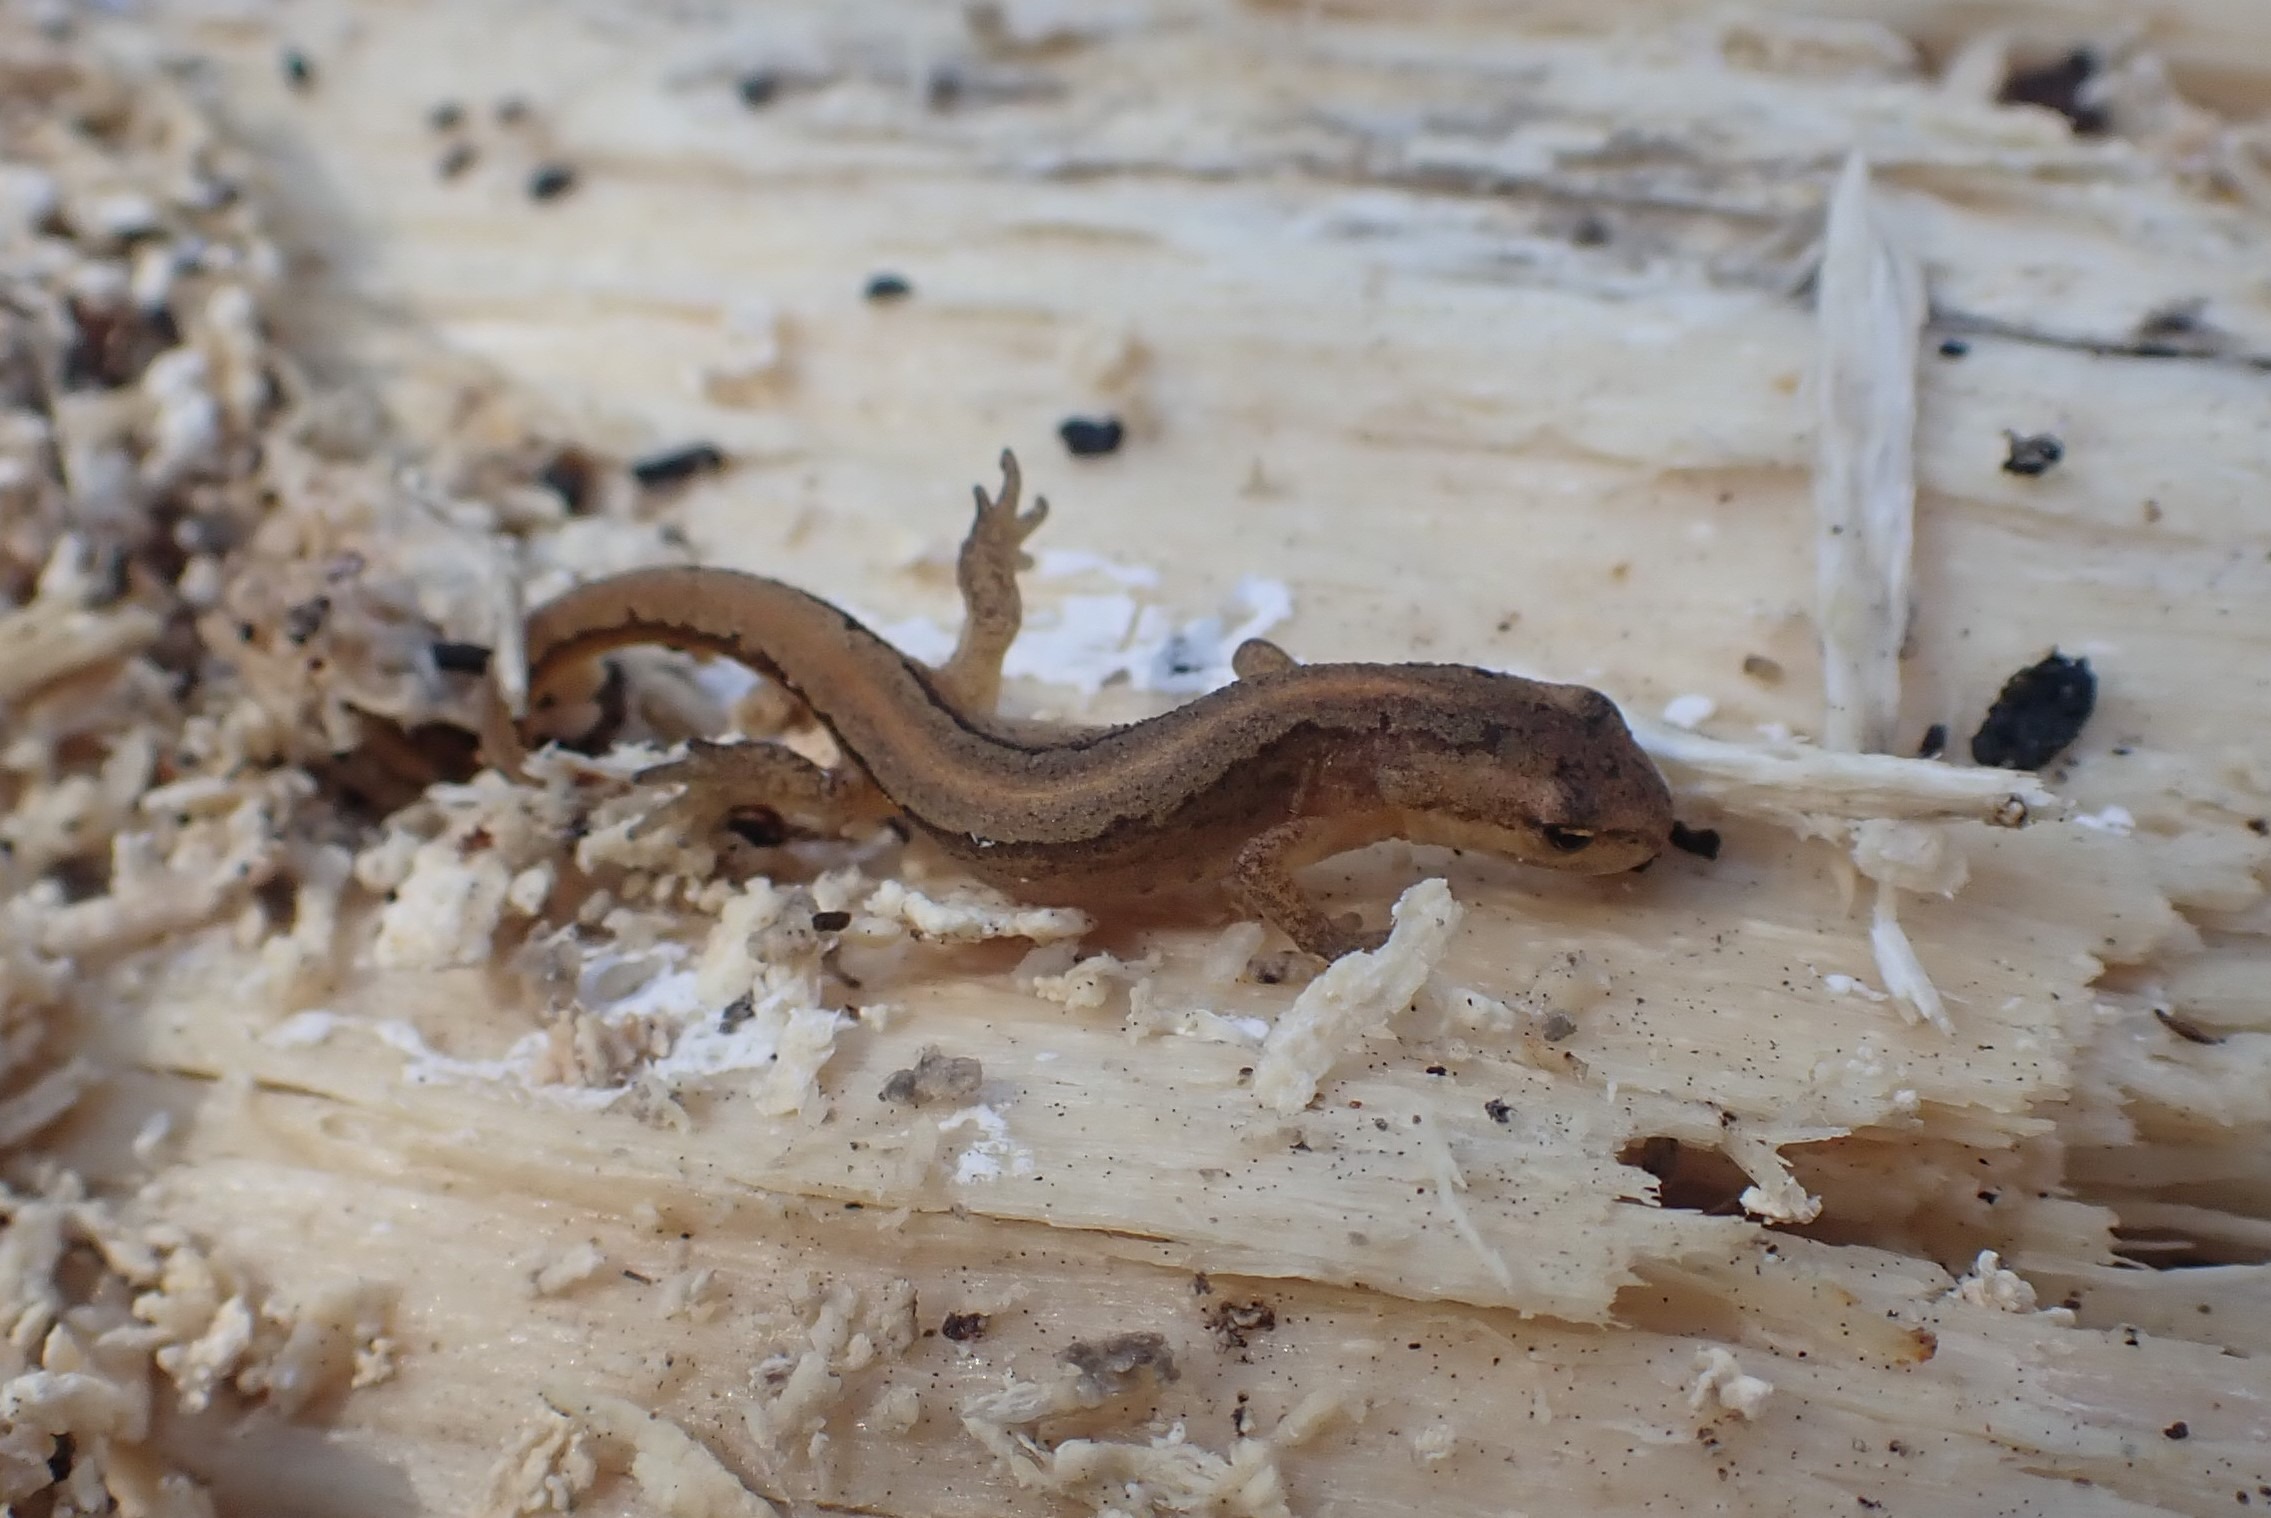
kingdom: Animalia
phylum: Chordata
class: Amphibia
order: Caudata
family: Salamandridae
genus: Lissotriton
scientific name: Lissotriton vulgaris
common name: Lille vandsalamander
